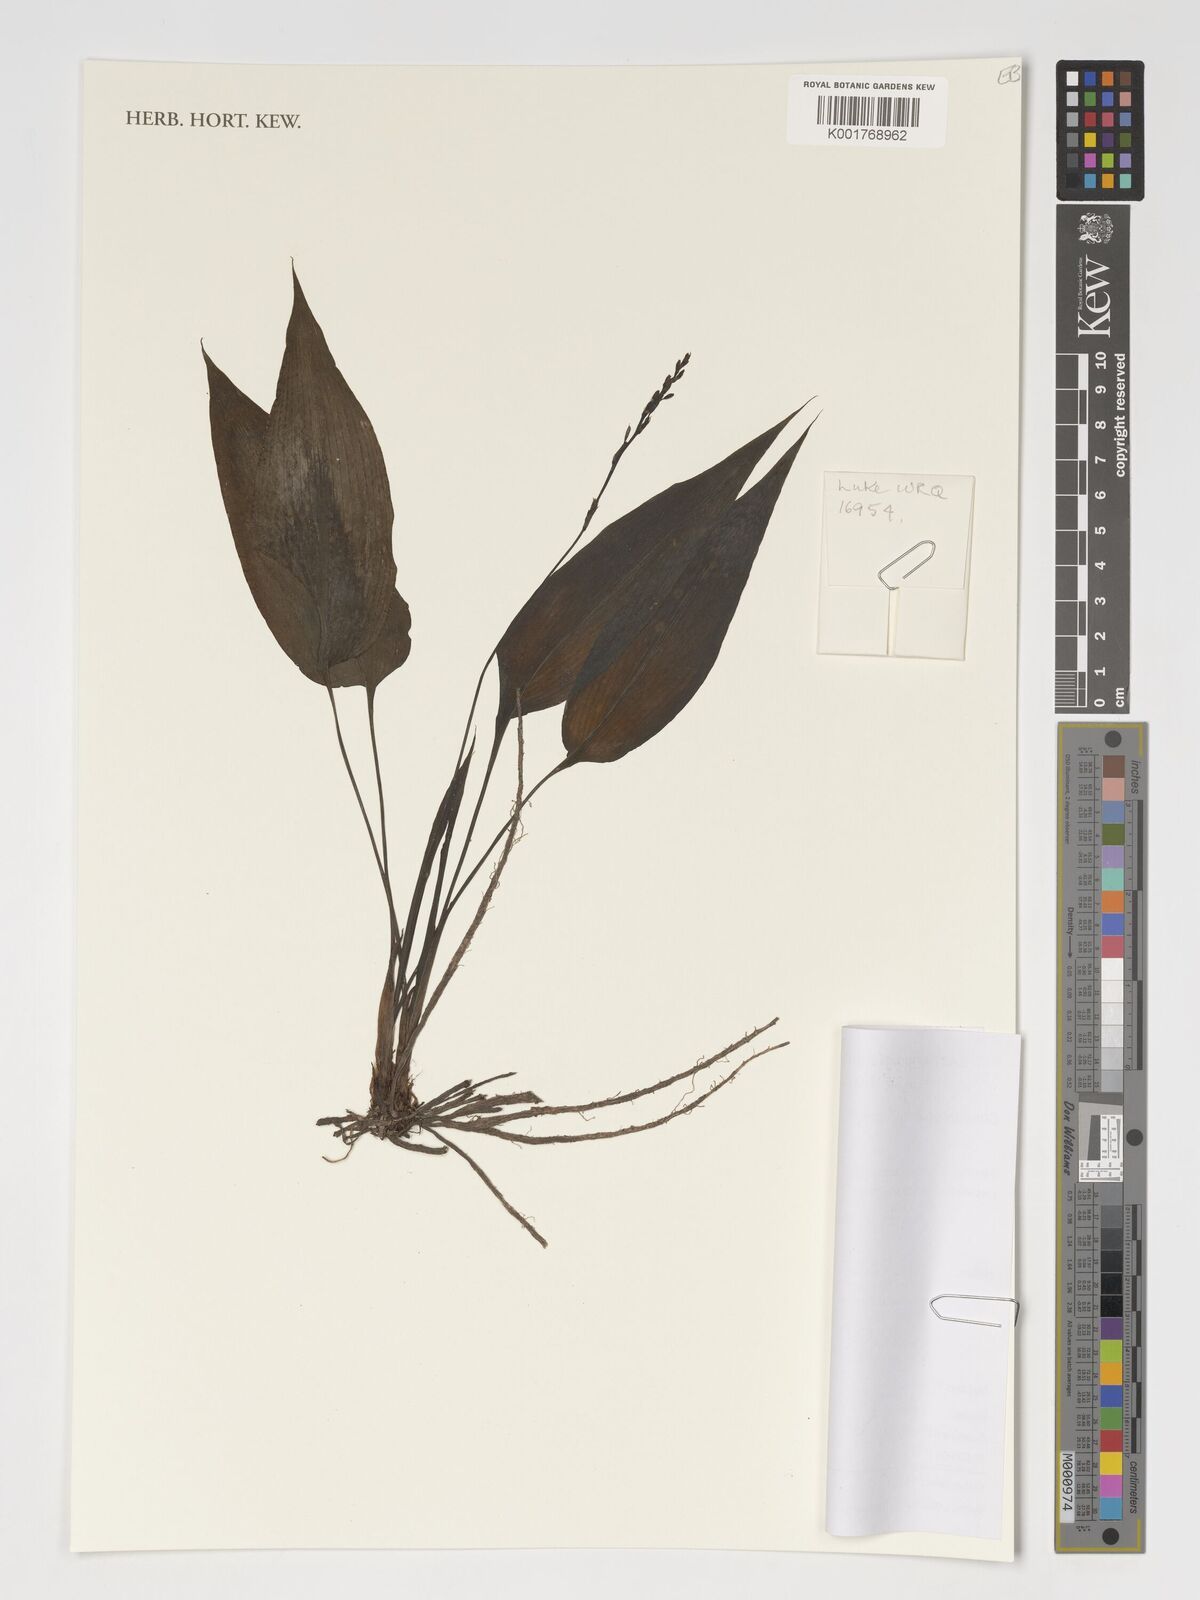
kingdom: Plantae
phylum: Tracheophyta
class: Liliopsida
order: Asparagales
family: Asparagaceae
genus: Chlorophytum
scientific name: Chlorophytum lancifolium
